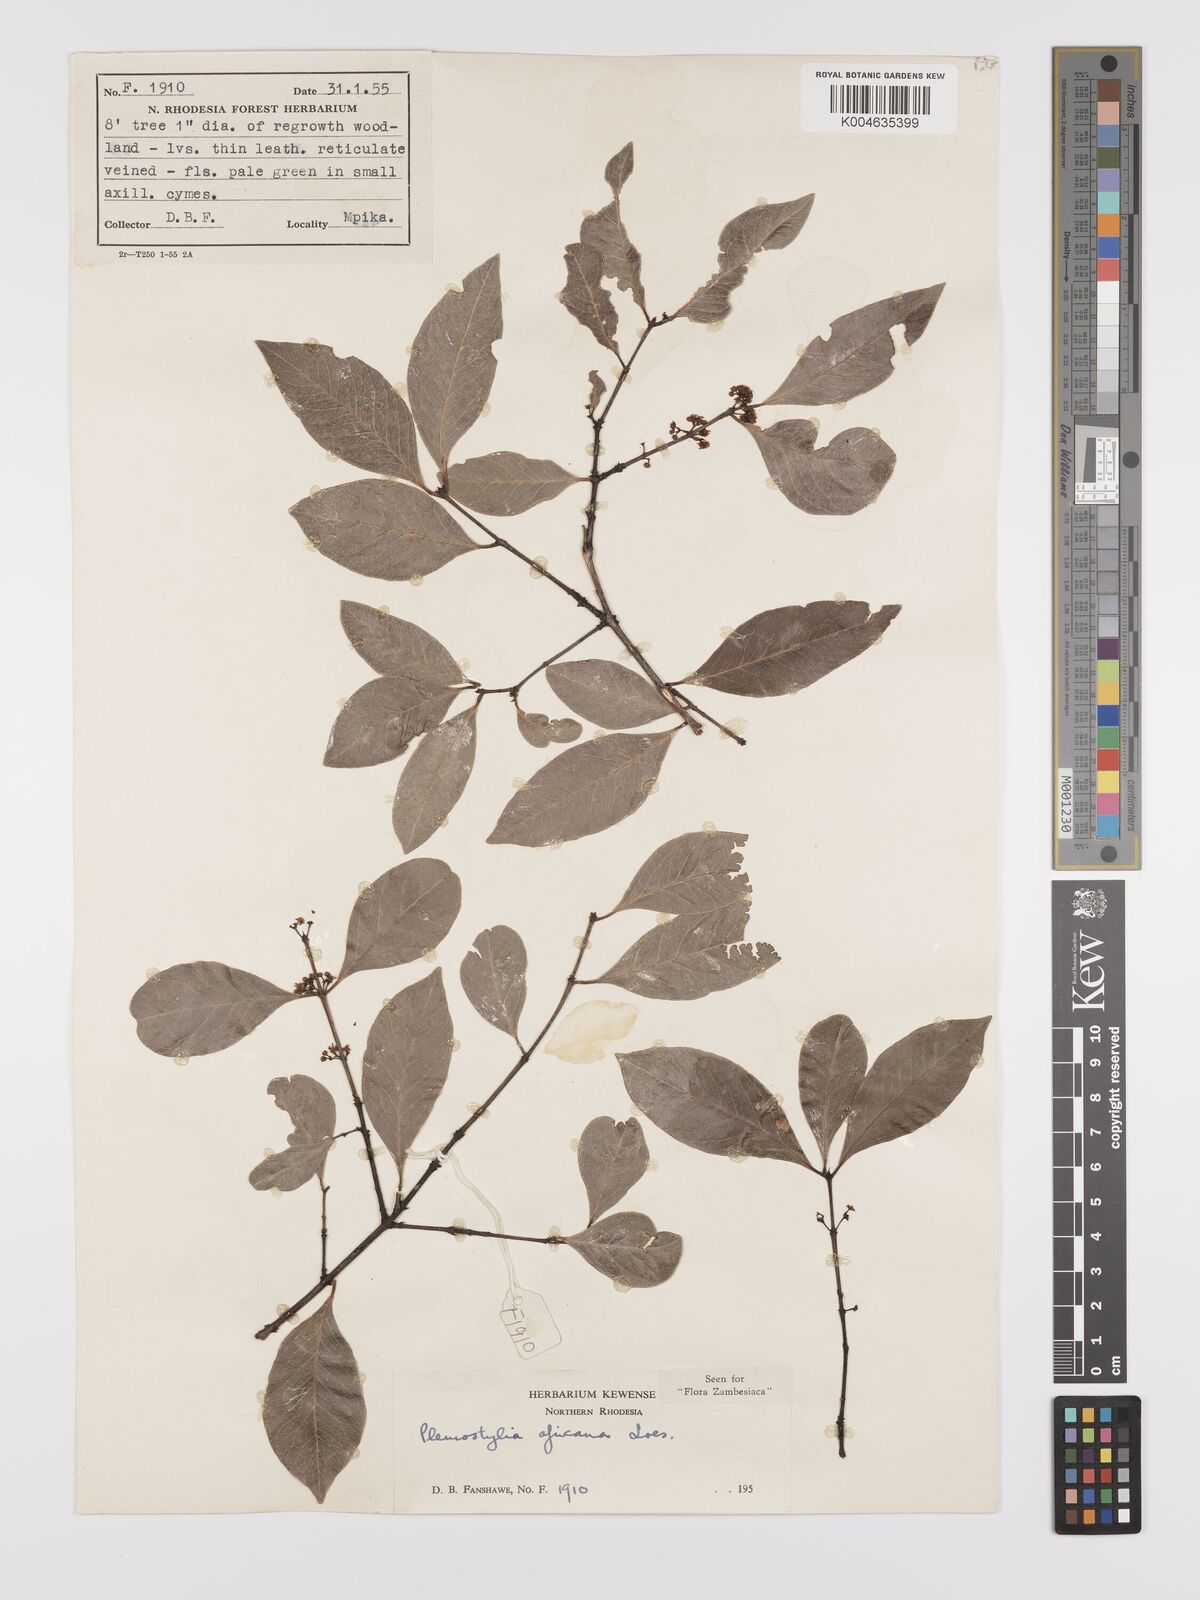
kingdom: Plantae
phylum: Tracheophyta
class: Magnoliopsida
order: Celastrales
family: Celastraceae
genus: Pleurostylia
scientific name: Pleurostylia africana
